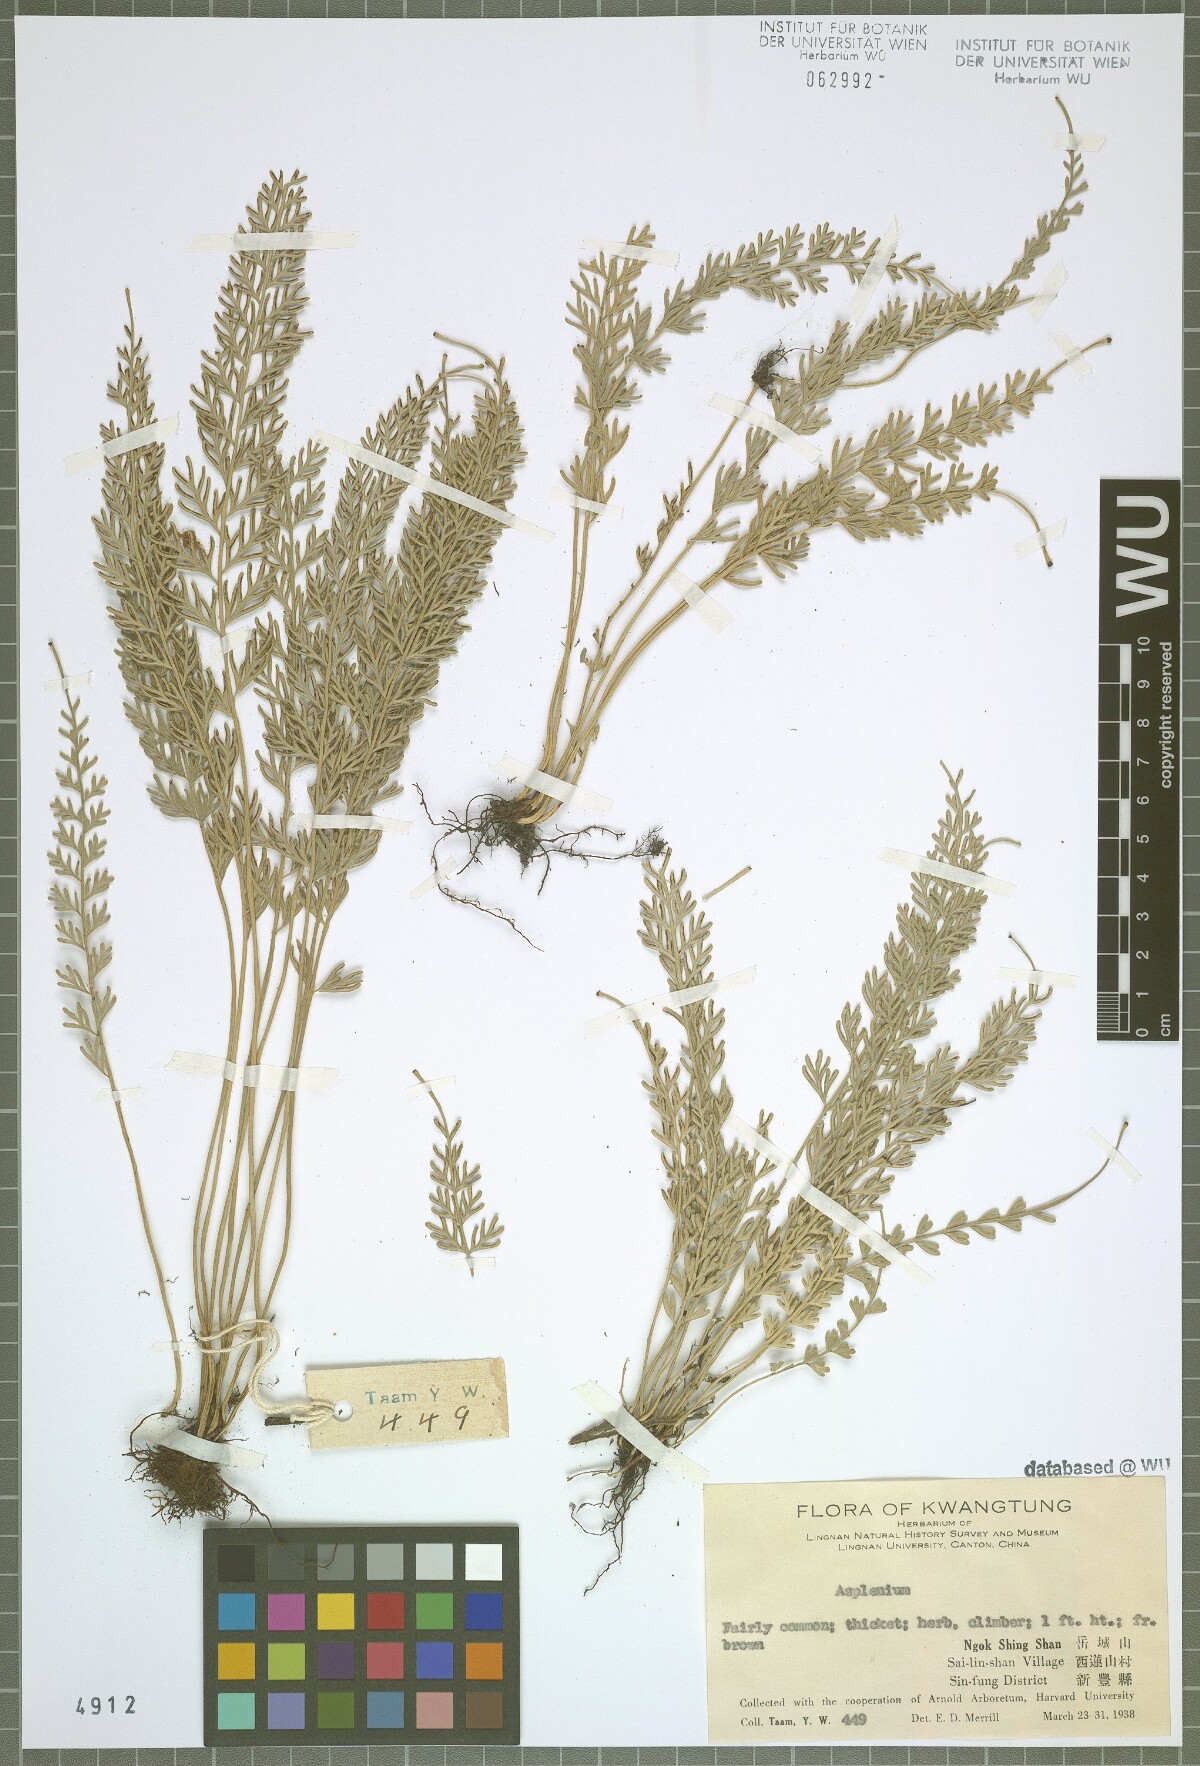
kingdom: Plantae
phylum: Tracheophyta
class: Polypodiopsida
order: Polypodiales
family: Aspleniaceae
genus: Asplenium
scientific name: Asplenium
